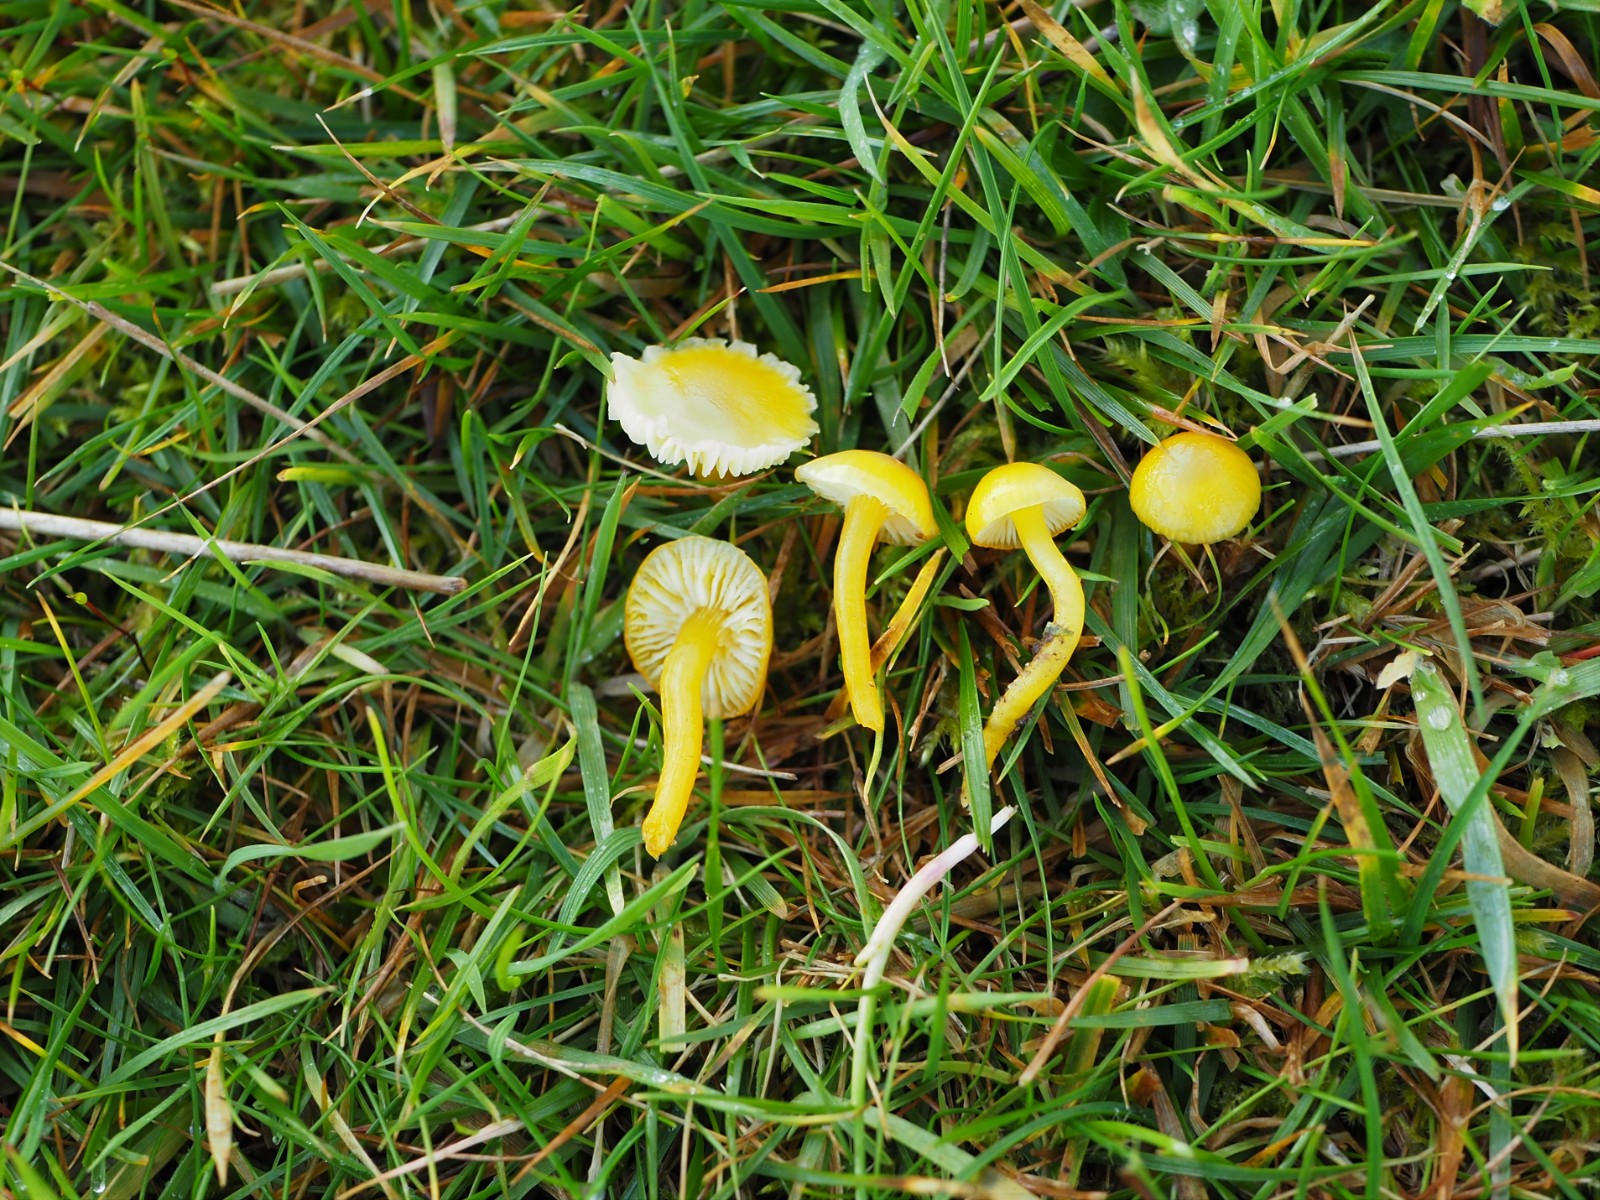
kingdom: Fungi
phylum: Basidiomycota
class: Agaricomycetes
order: Agaricales
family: Hygrophoraceae
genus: Hygrocybe
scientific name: Hygrocybe ceracea
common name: voksgul vokshat
